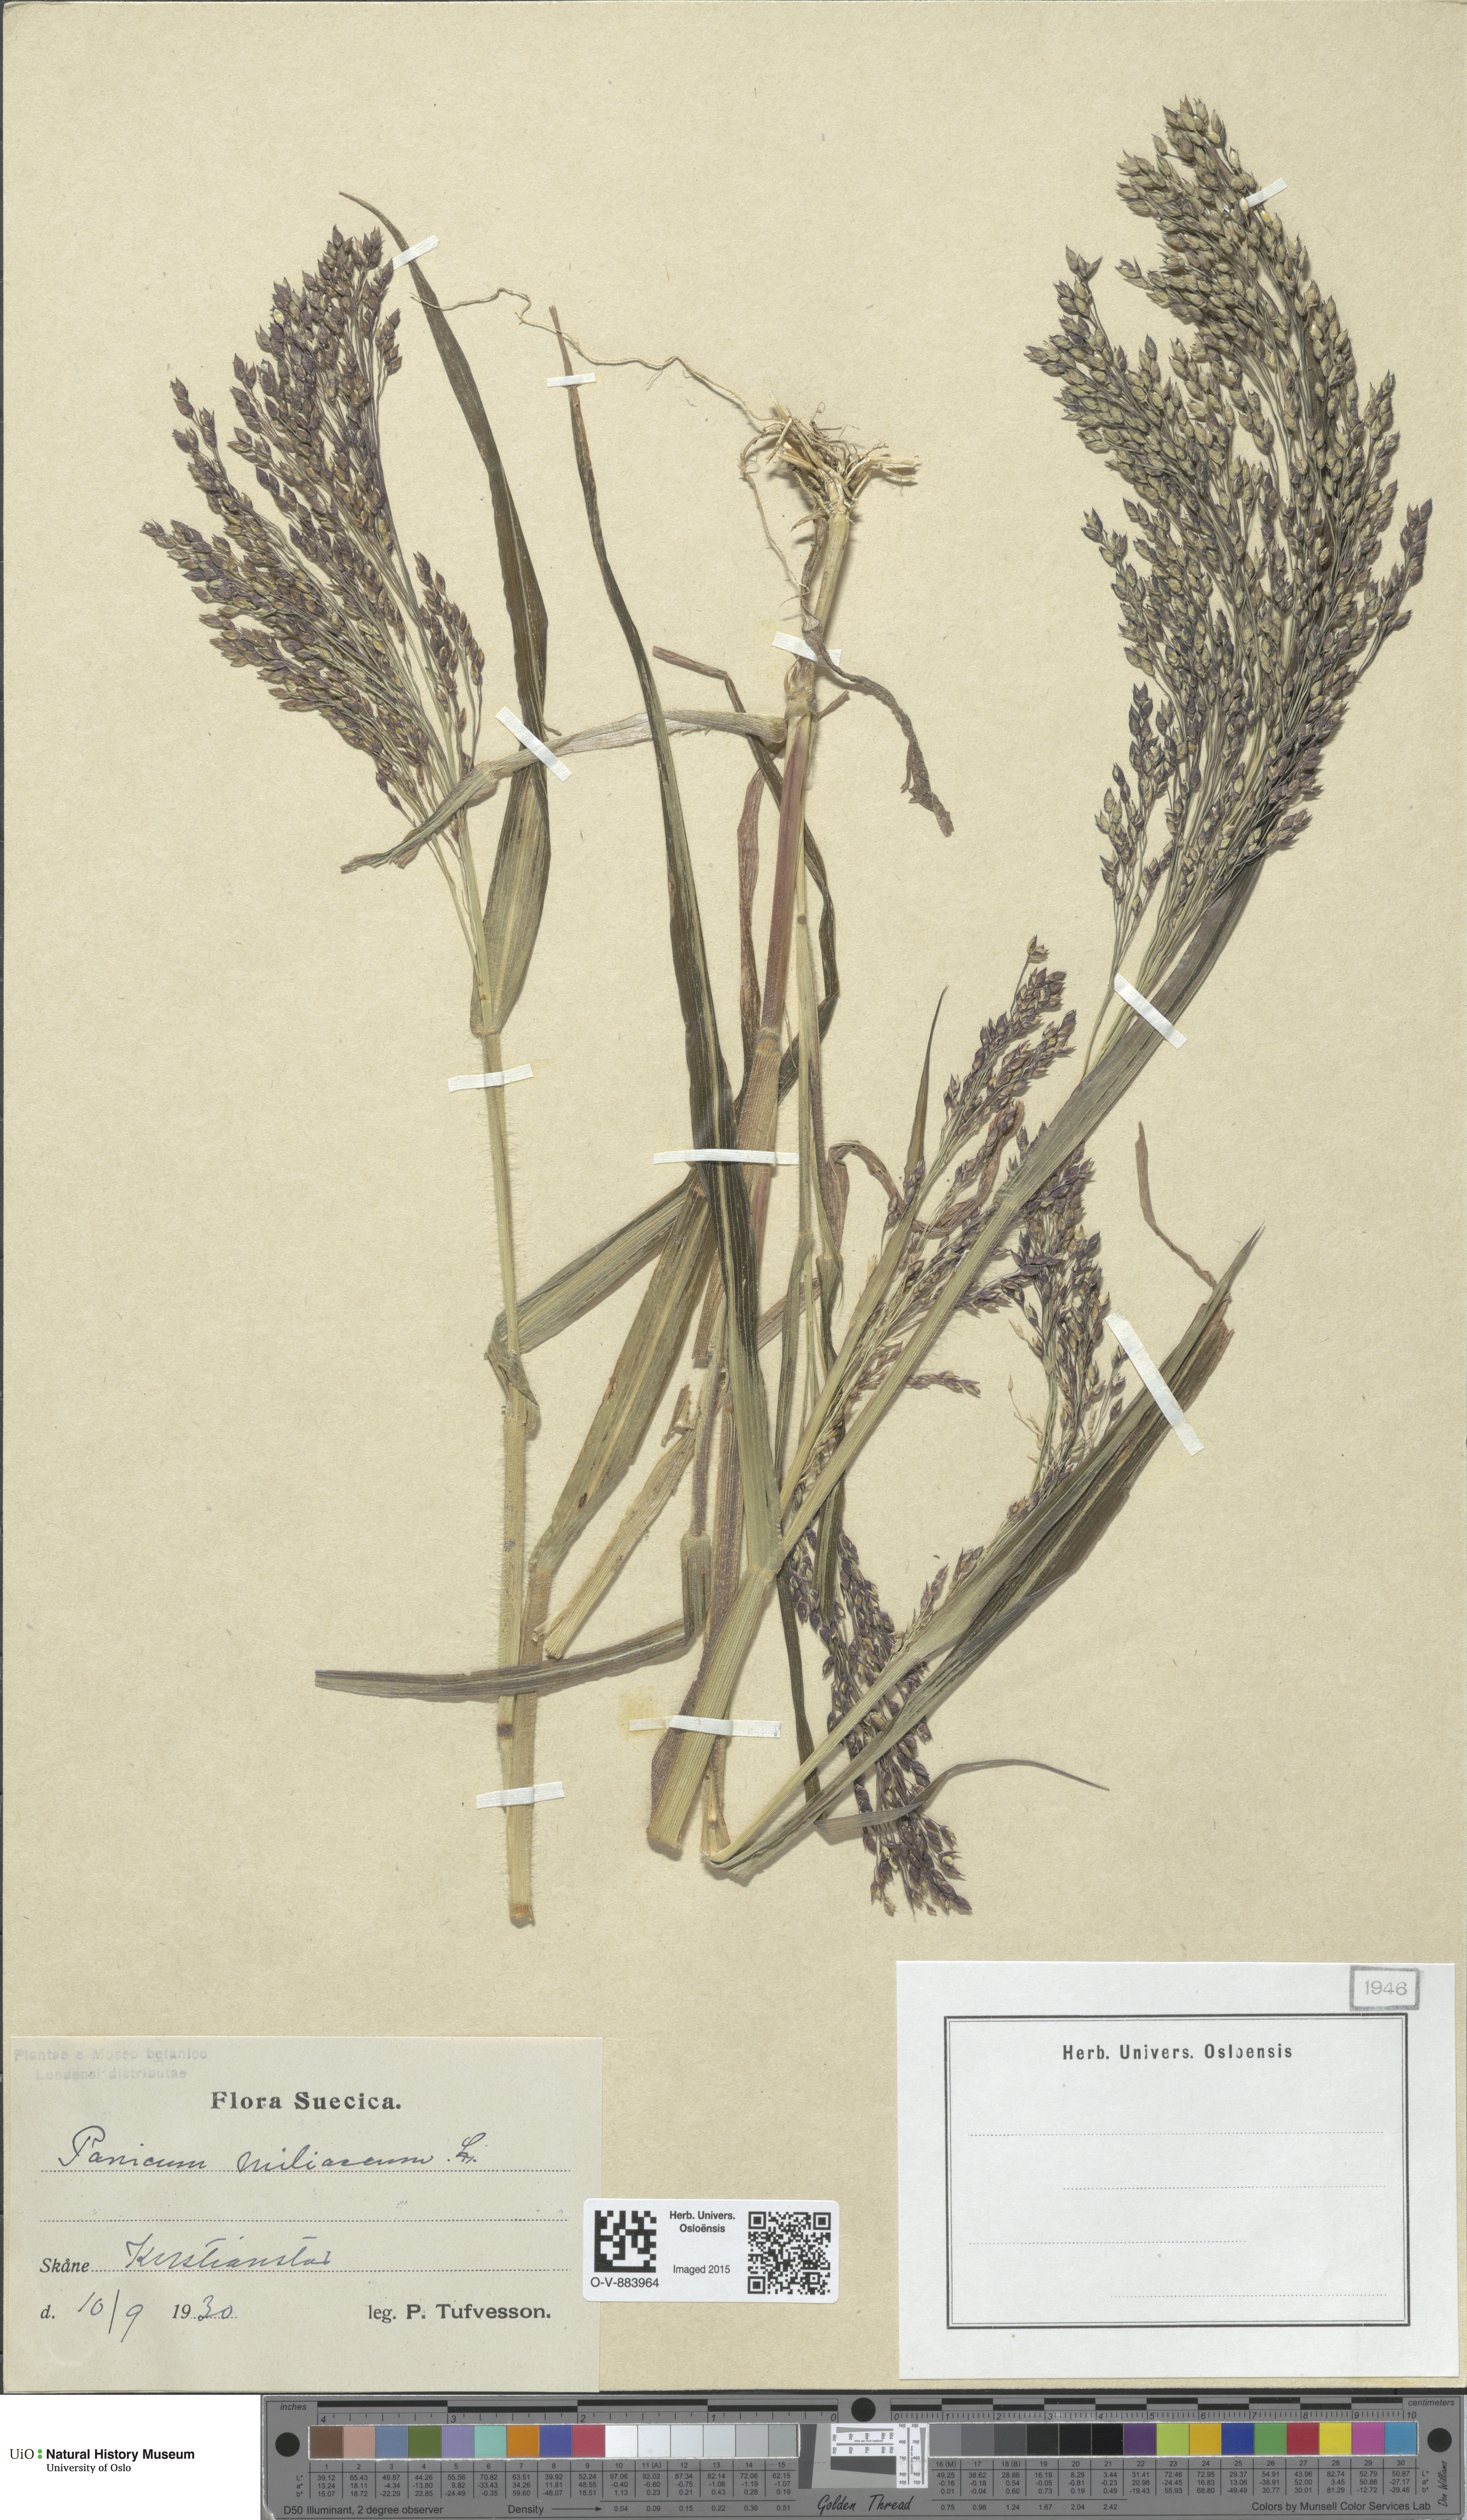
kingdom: Plantae
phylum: Tracheophyta
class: Liliopsida
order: Poales
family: Poaceae
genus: Panicum
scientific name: Panicum miliaceum
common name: Common millet
